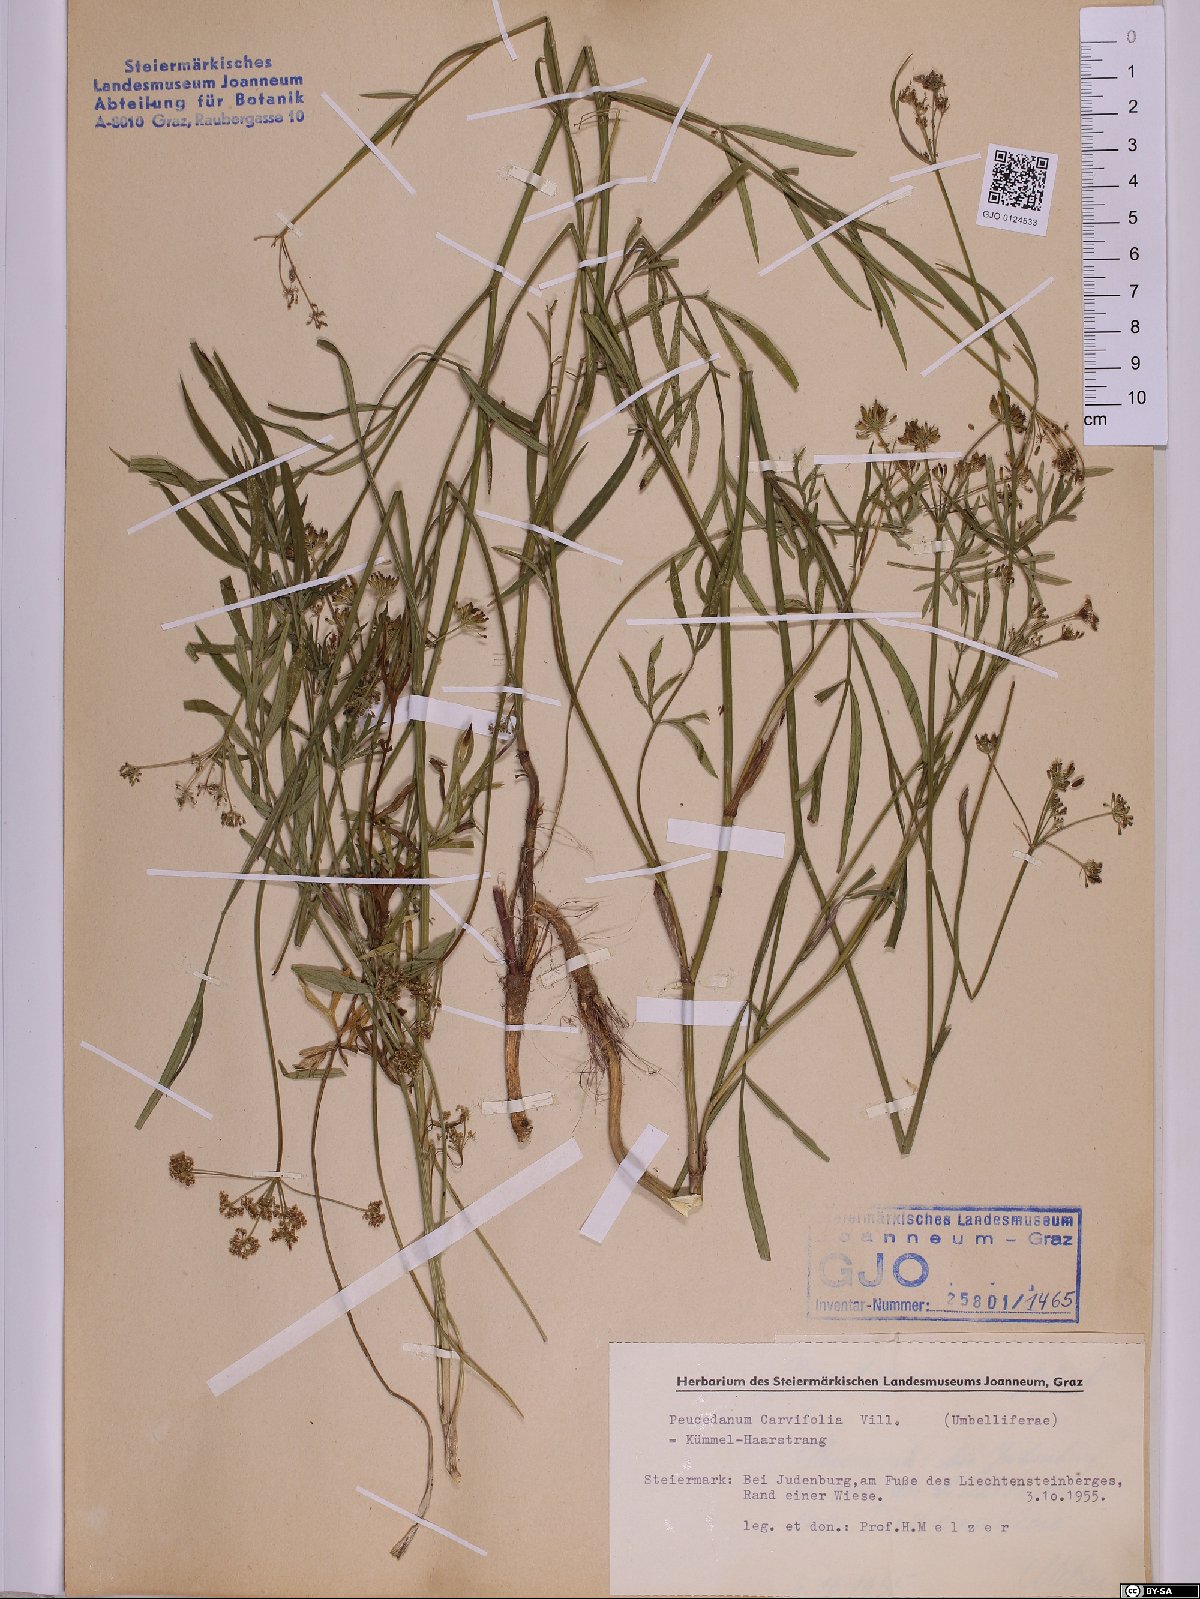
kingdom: Plantae
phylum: Tracheophyta
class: Magnoliopsida
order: Apiales
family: Apiaceae
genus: Dichoropetalum
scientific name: Dichoropetalum carvifolia
